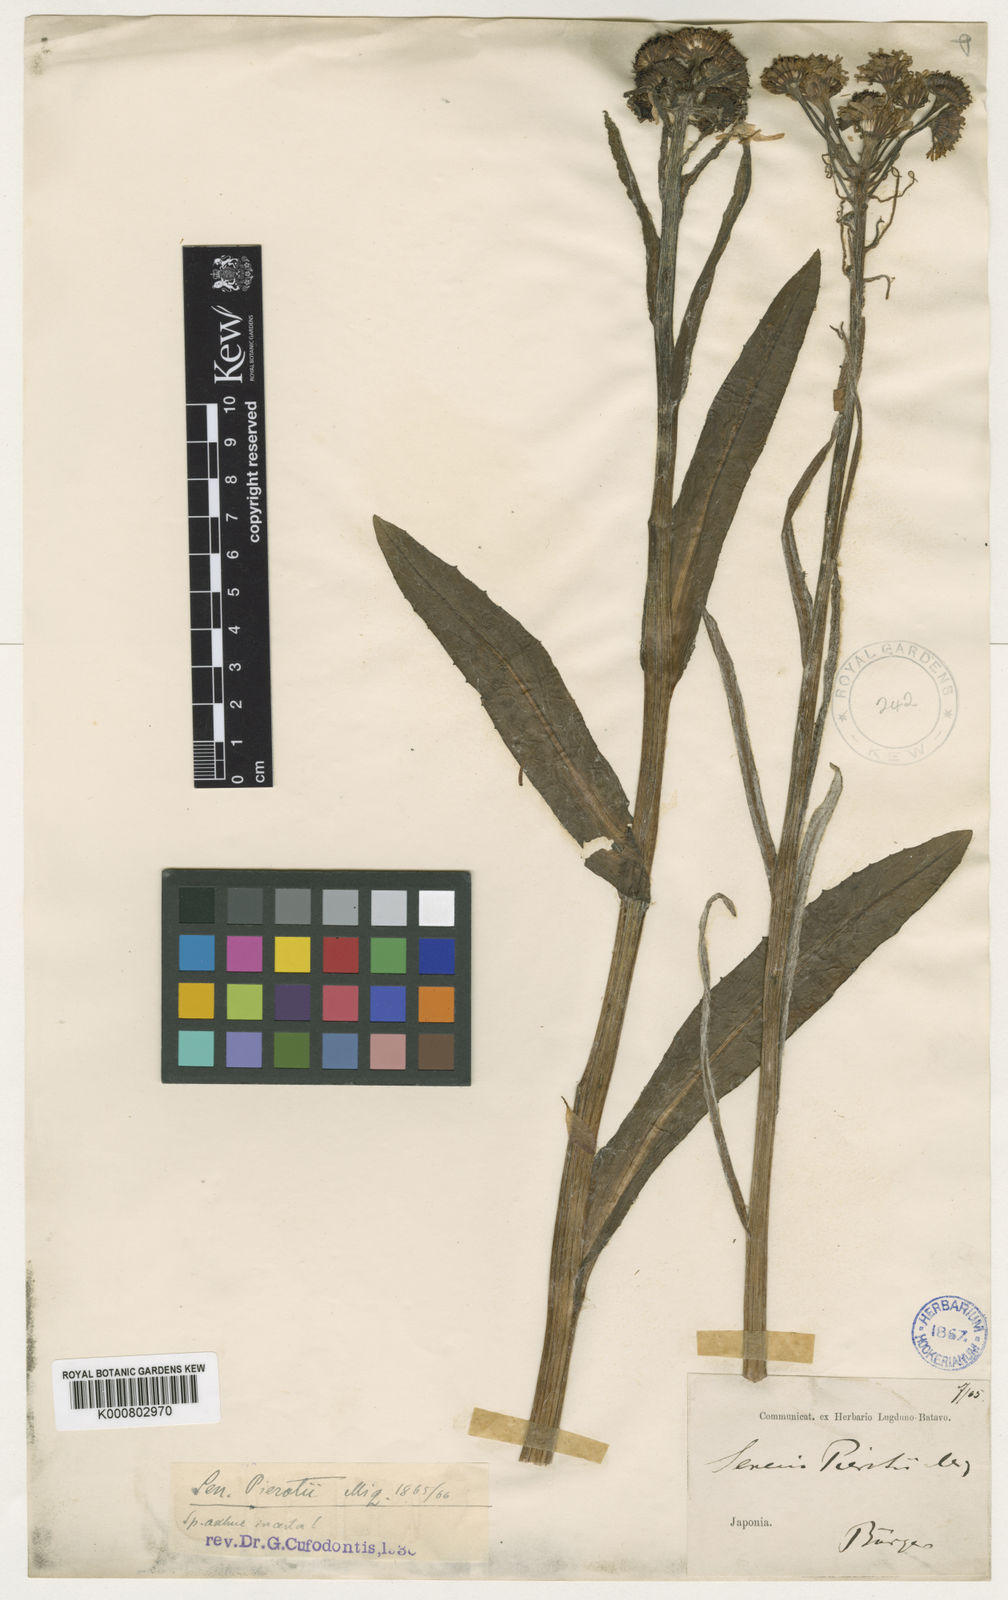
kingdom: Plantae
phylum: Tracheophyta
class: Magnoliopsida
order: Asterales
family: Asteraceae
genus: Tephroseris
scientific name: Tephroseris pierotii
